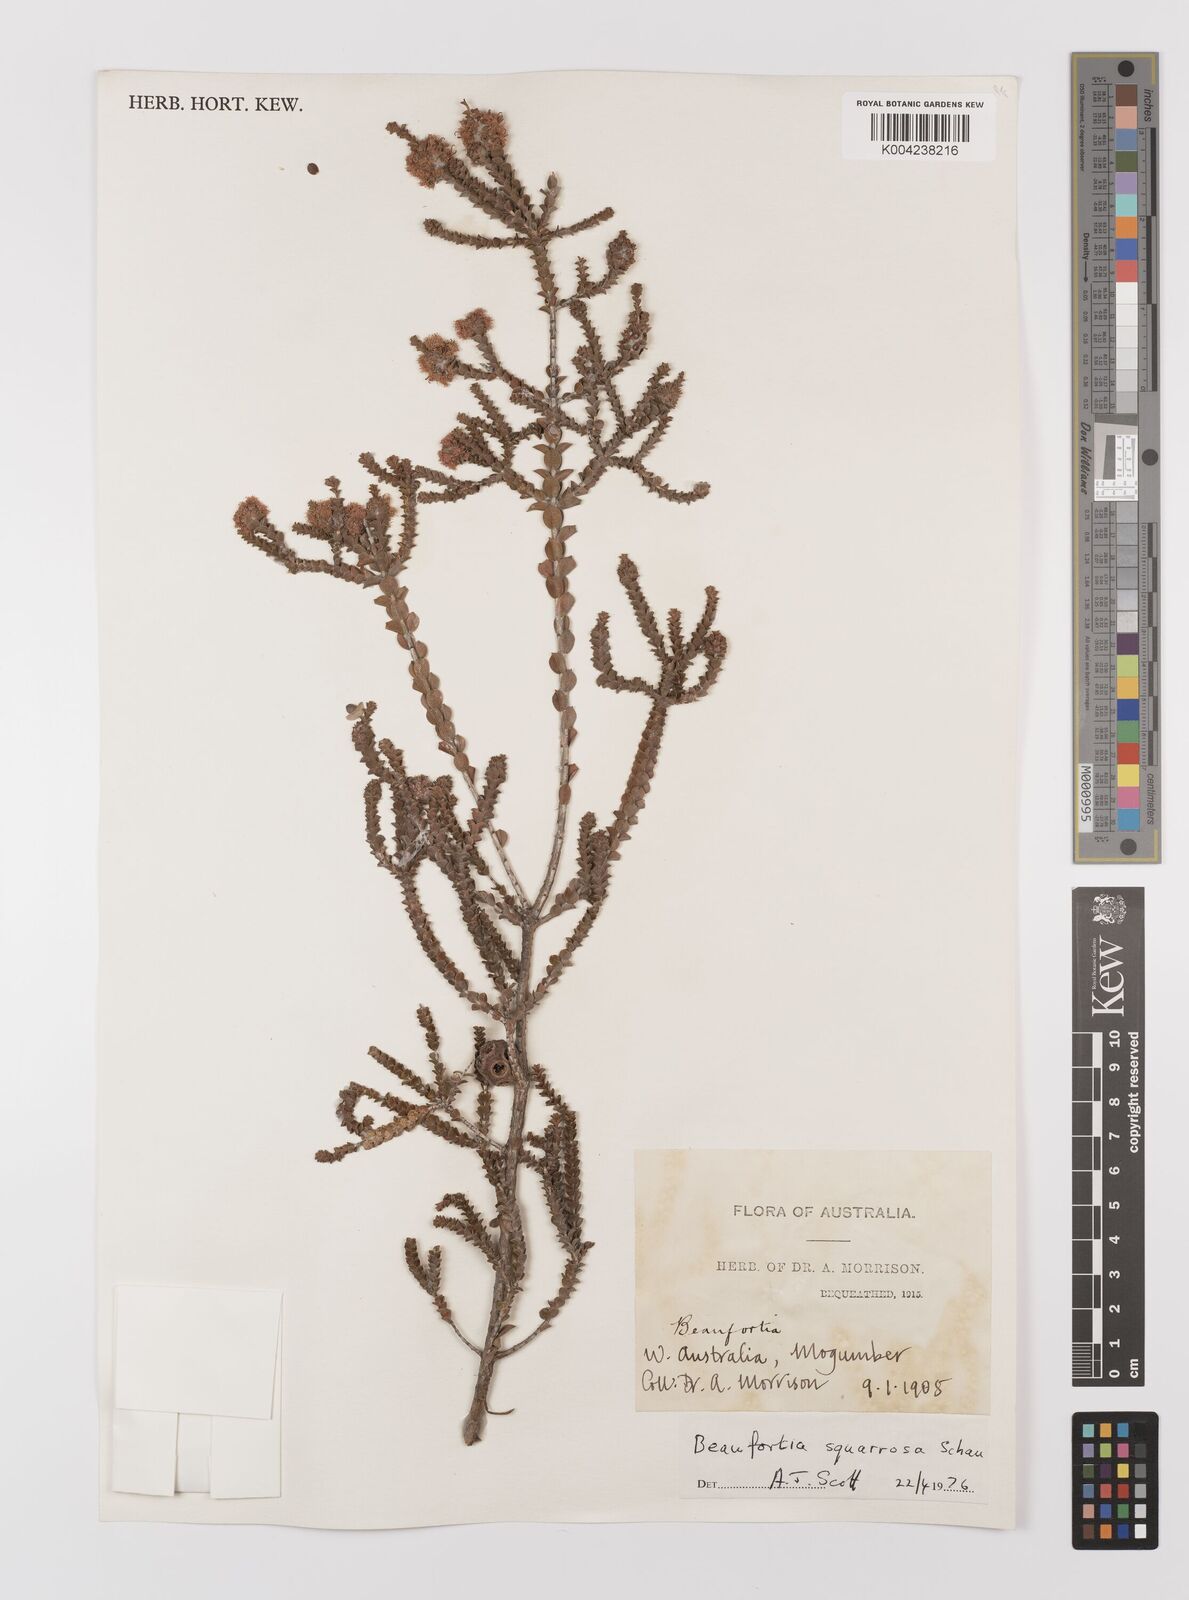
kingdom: Plantae
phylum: Tracheophyta
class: Magnoliopsida
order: Myrtales
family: Myrtaceae
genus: Melaleuca
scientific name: Melaleuca crossota
